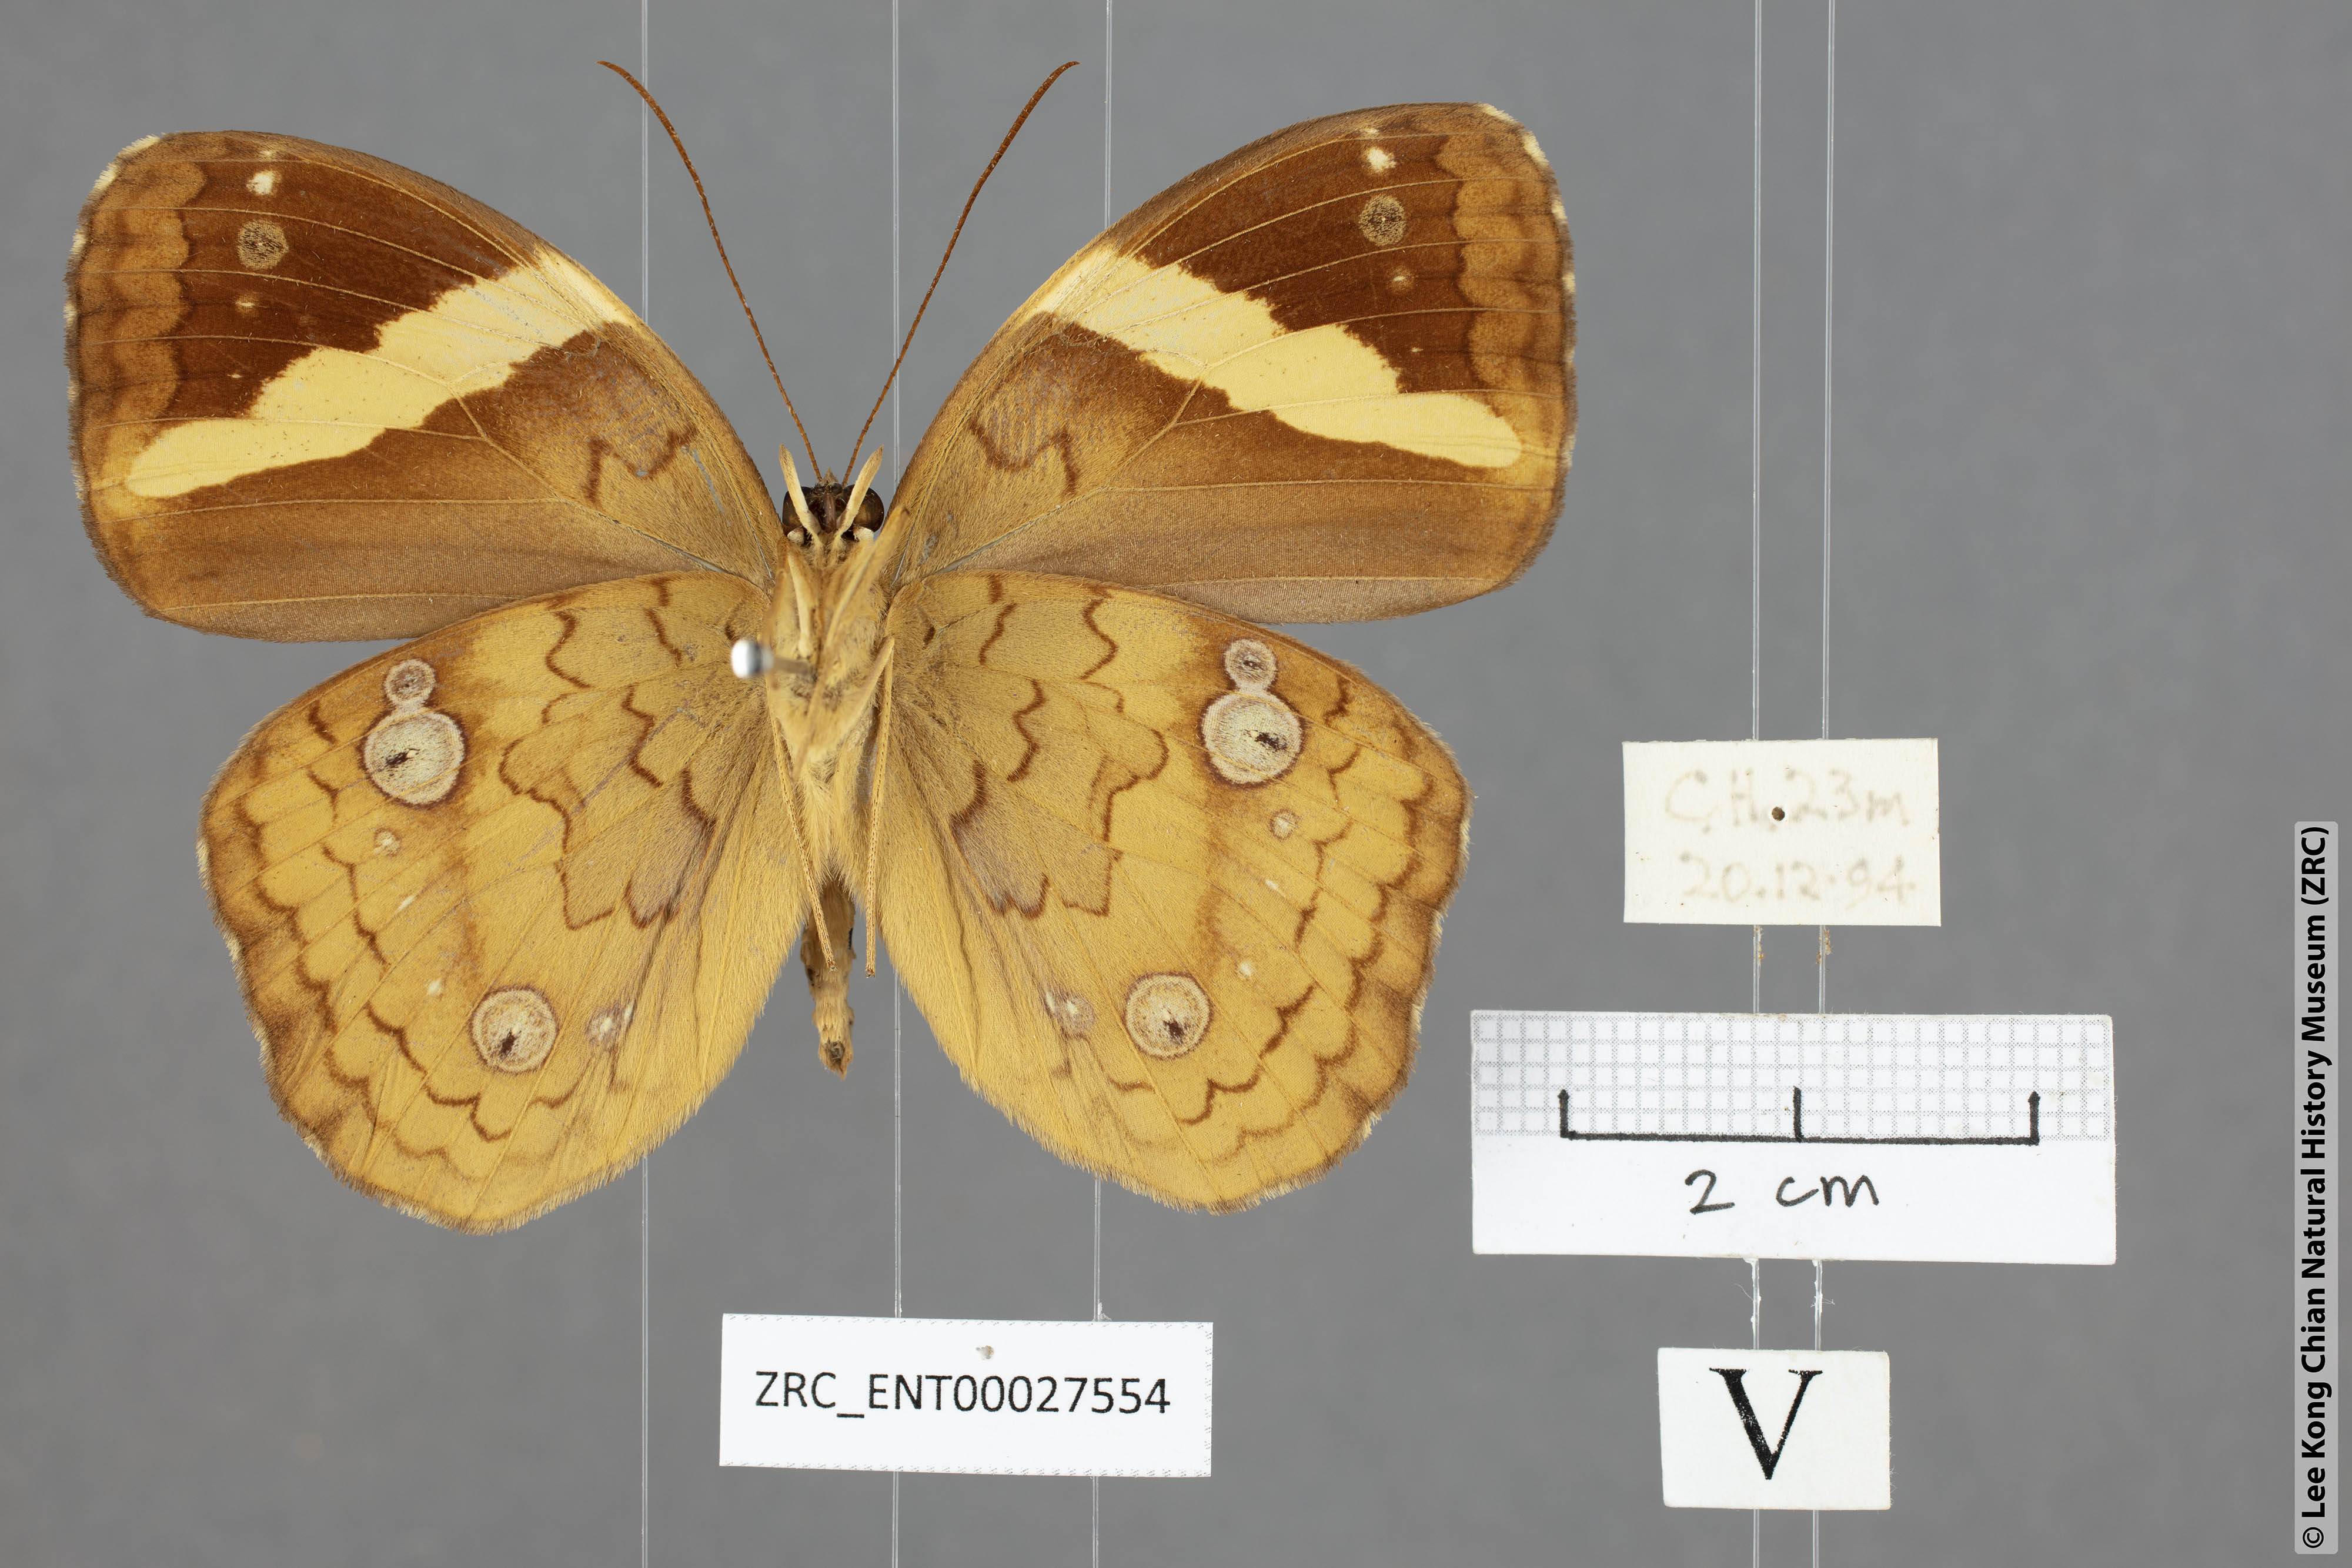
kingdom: Animalia
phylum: Arthropoda
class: Insecta
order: Lepidoptera
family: Nymphalidae
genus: Xanthotaenia
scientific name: Xanthotaenia busiris
